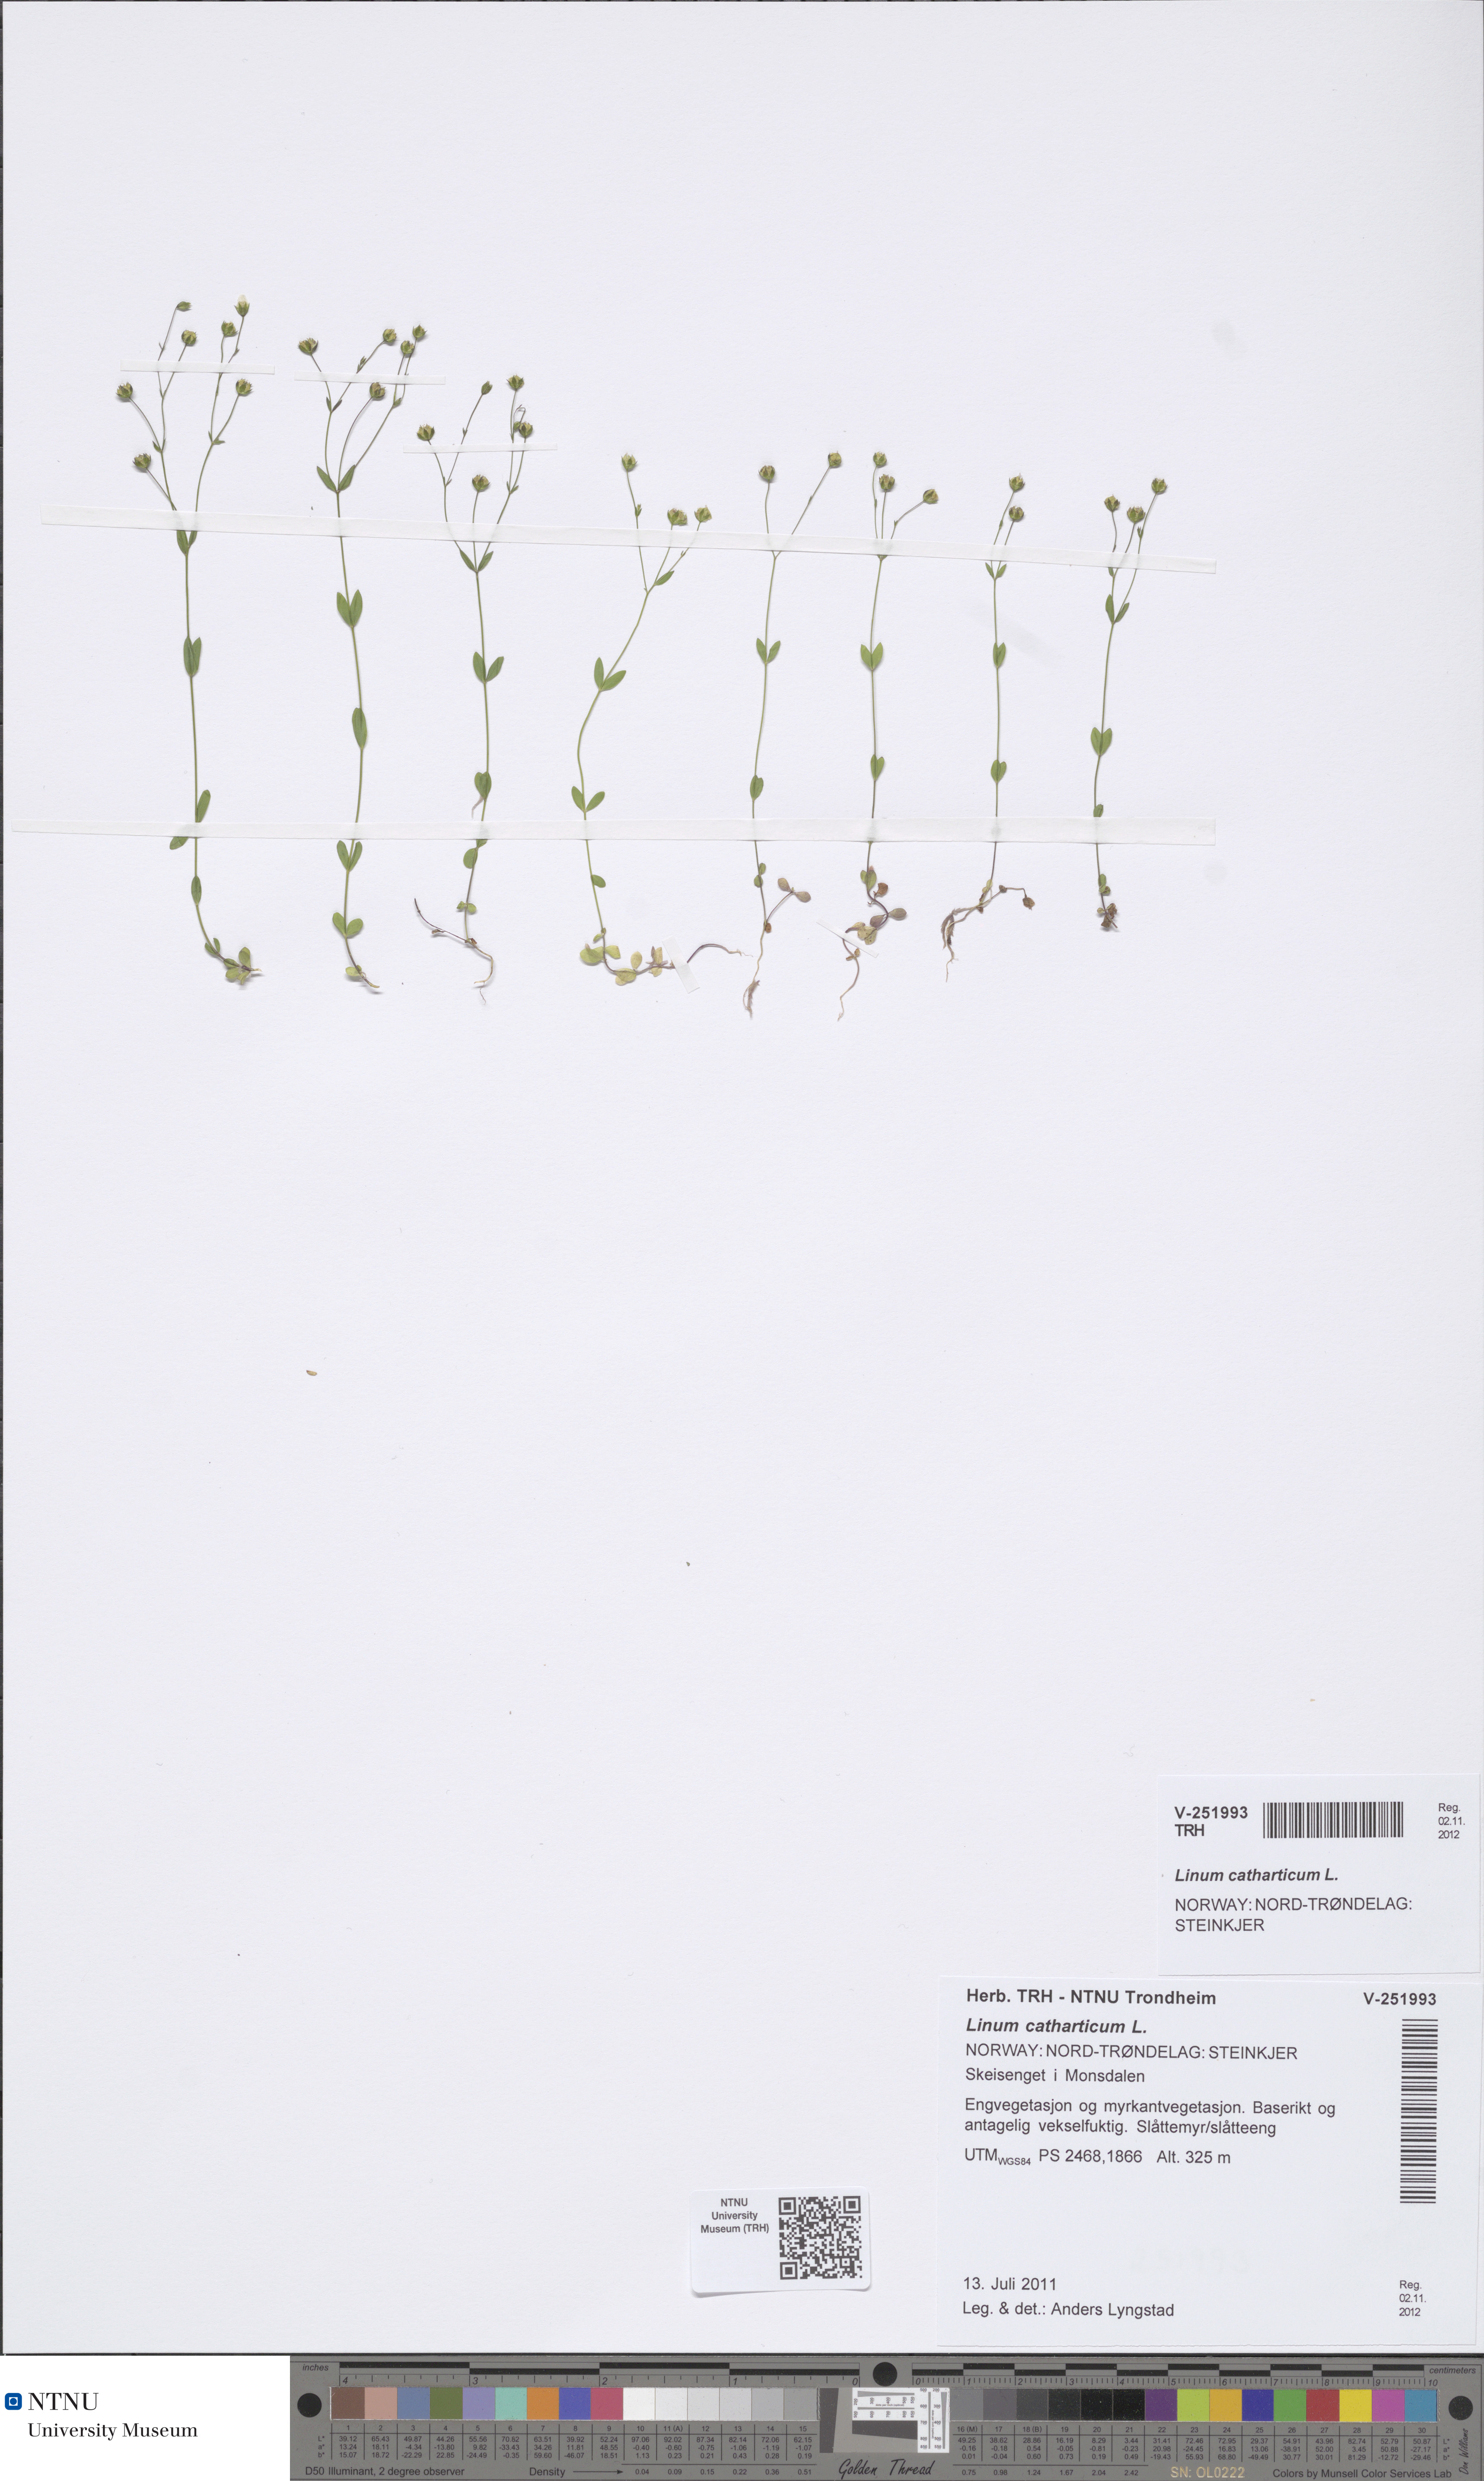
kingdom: Plantae
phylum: Tracheophyta
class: Magnoliopsida
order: Malpighiales
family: Linaceae
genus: Linum
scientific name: Linum catharticum
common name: Fairy flax
